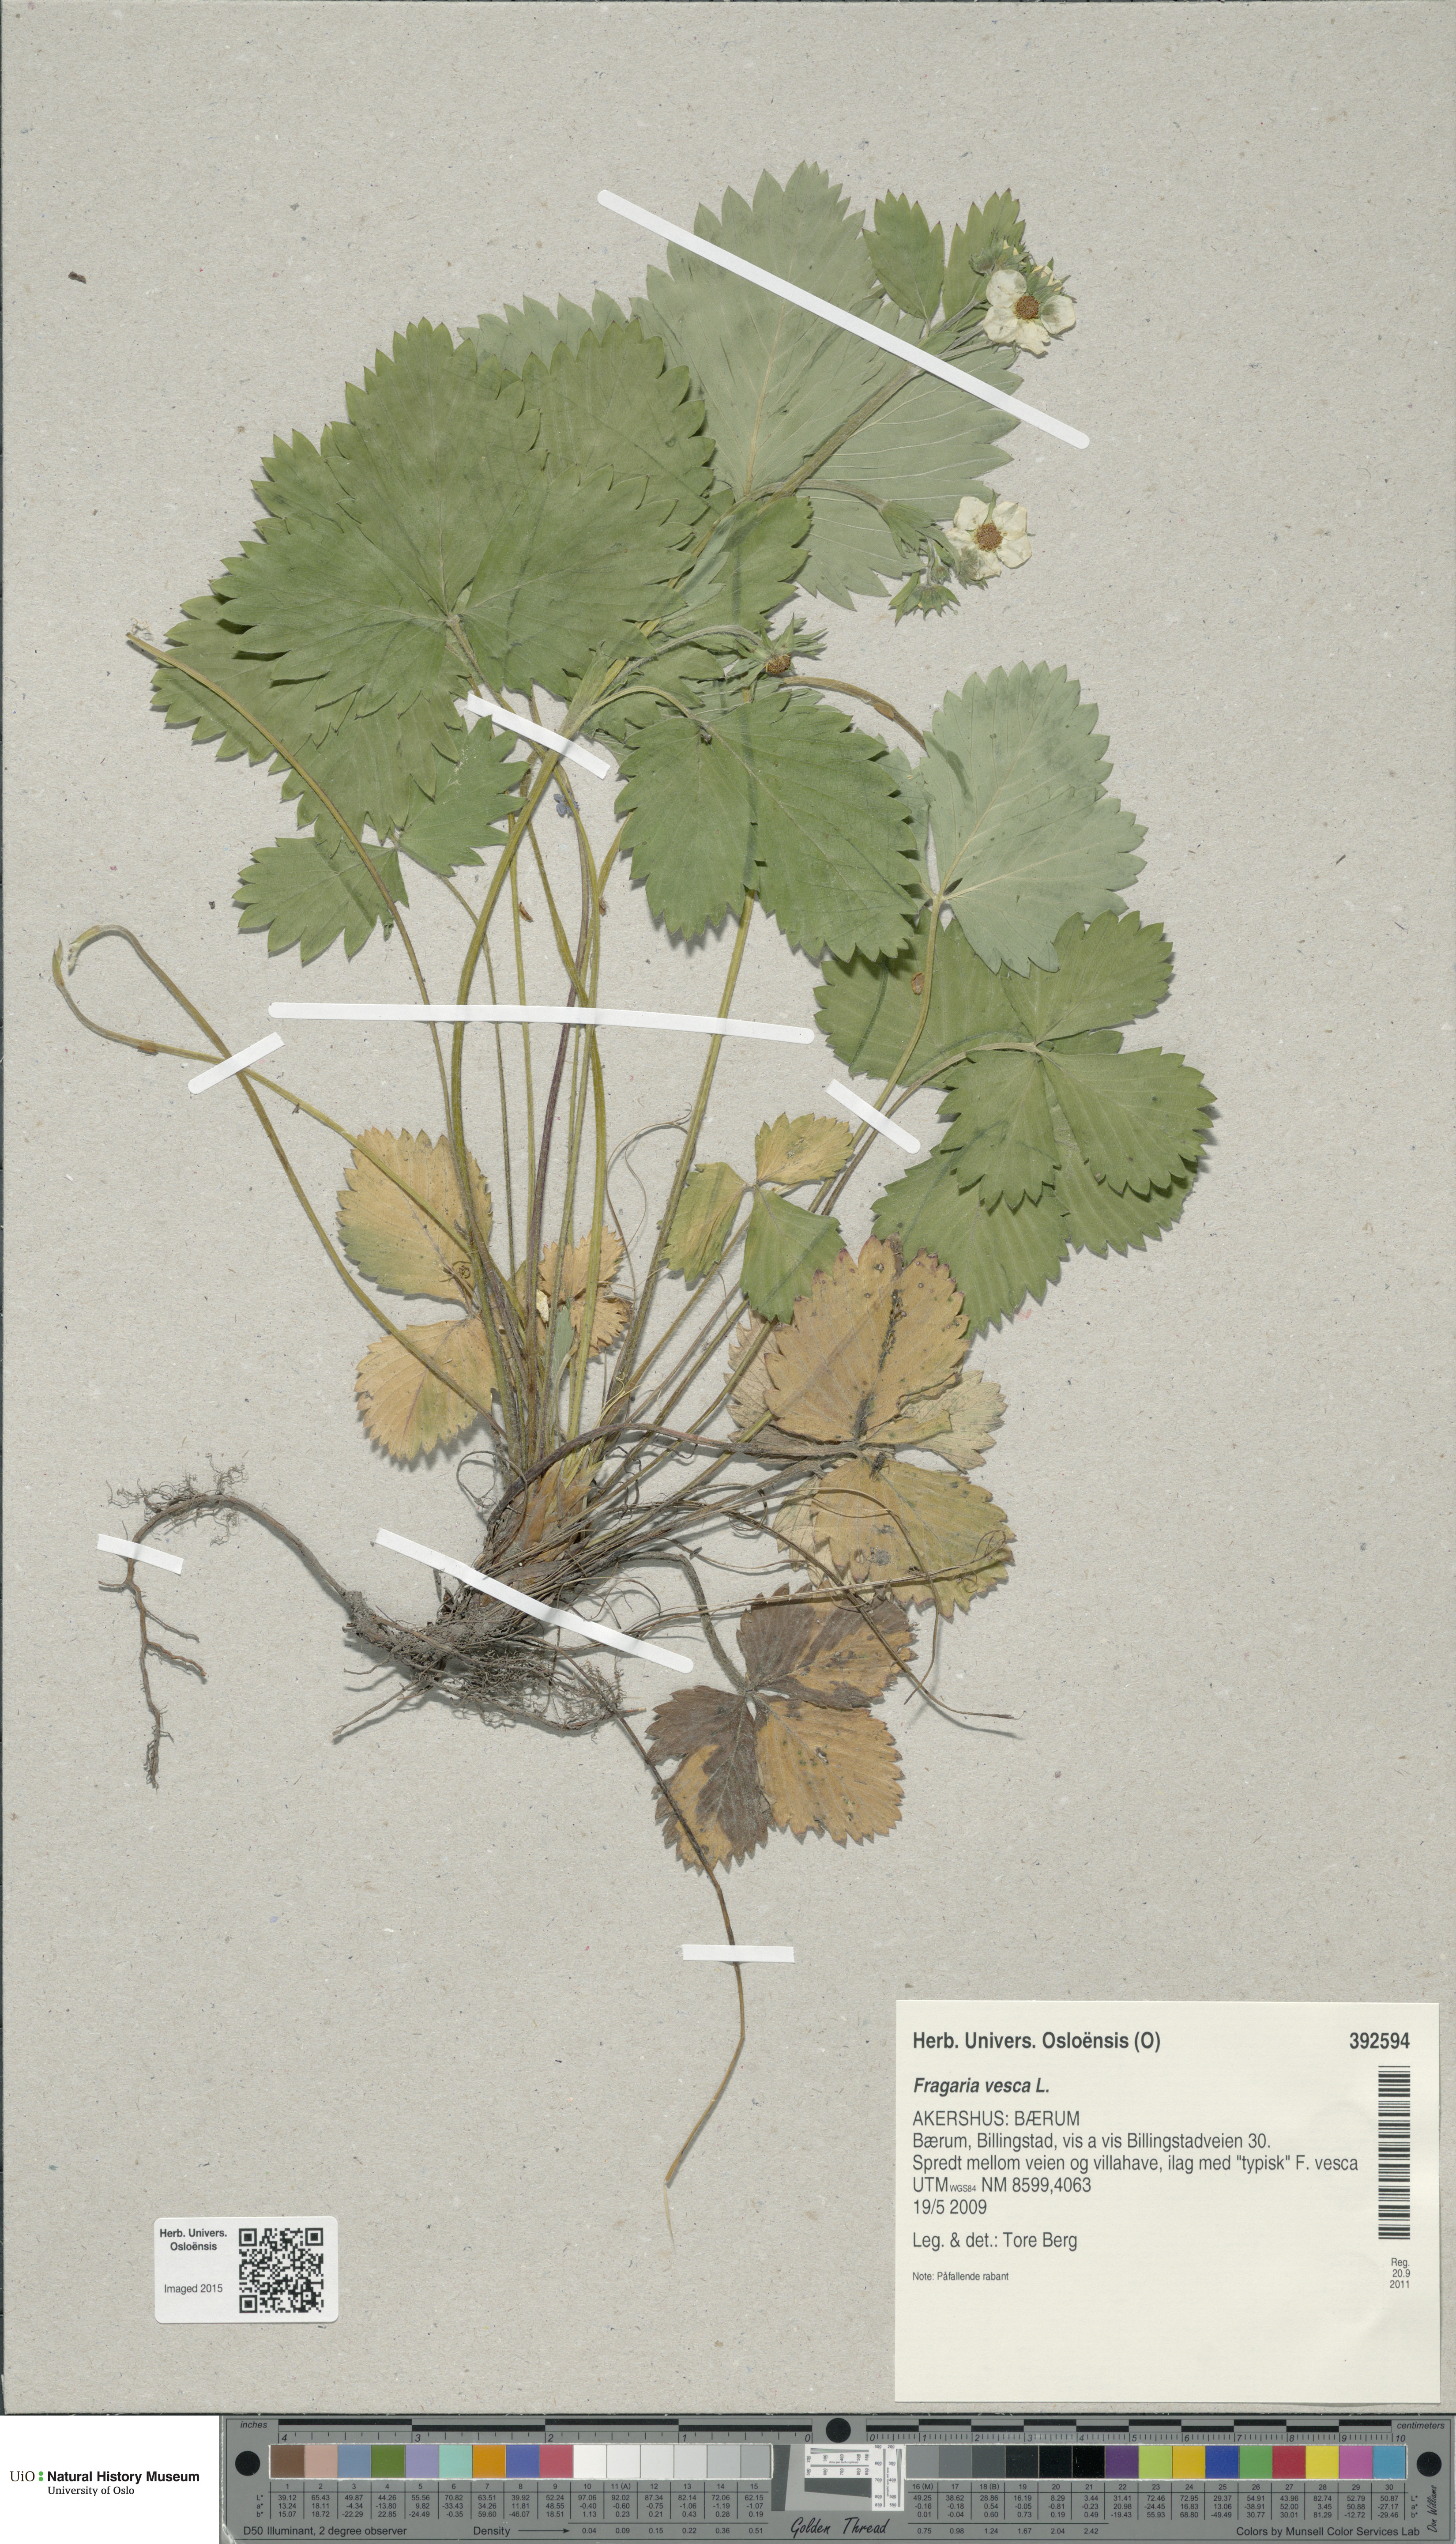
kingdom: Plantae
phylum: Tracheophyta
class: Magnoliopsida
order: Rosales
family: Rosaceae
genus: Fragaria
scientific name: Fragaria vesca
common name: Wild strawberry
